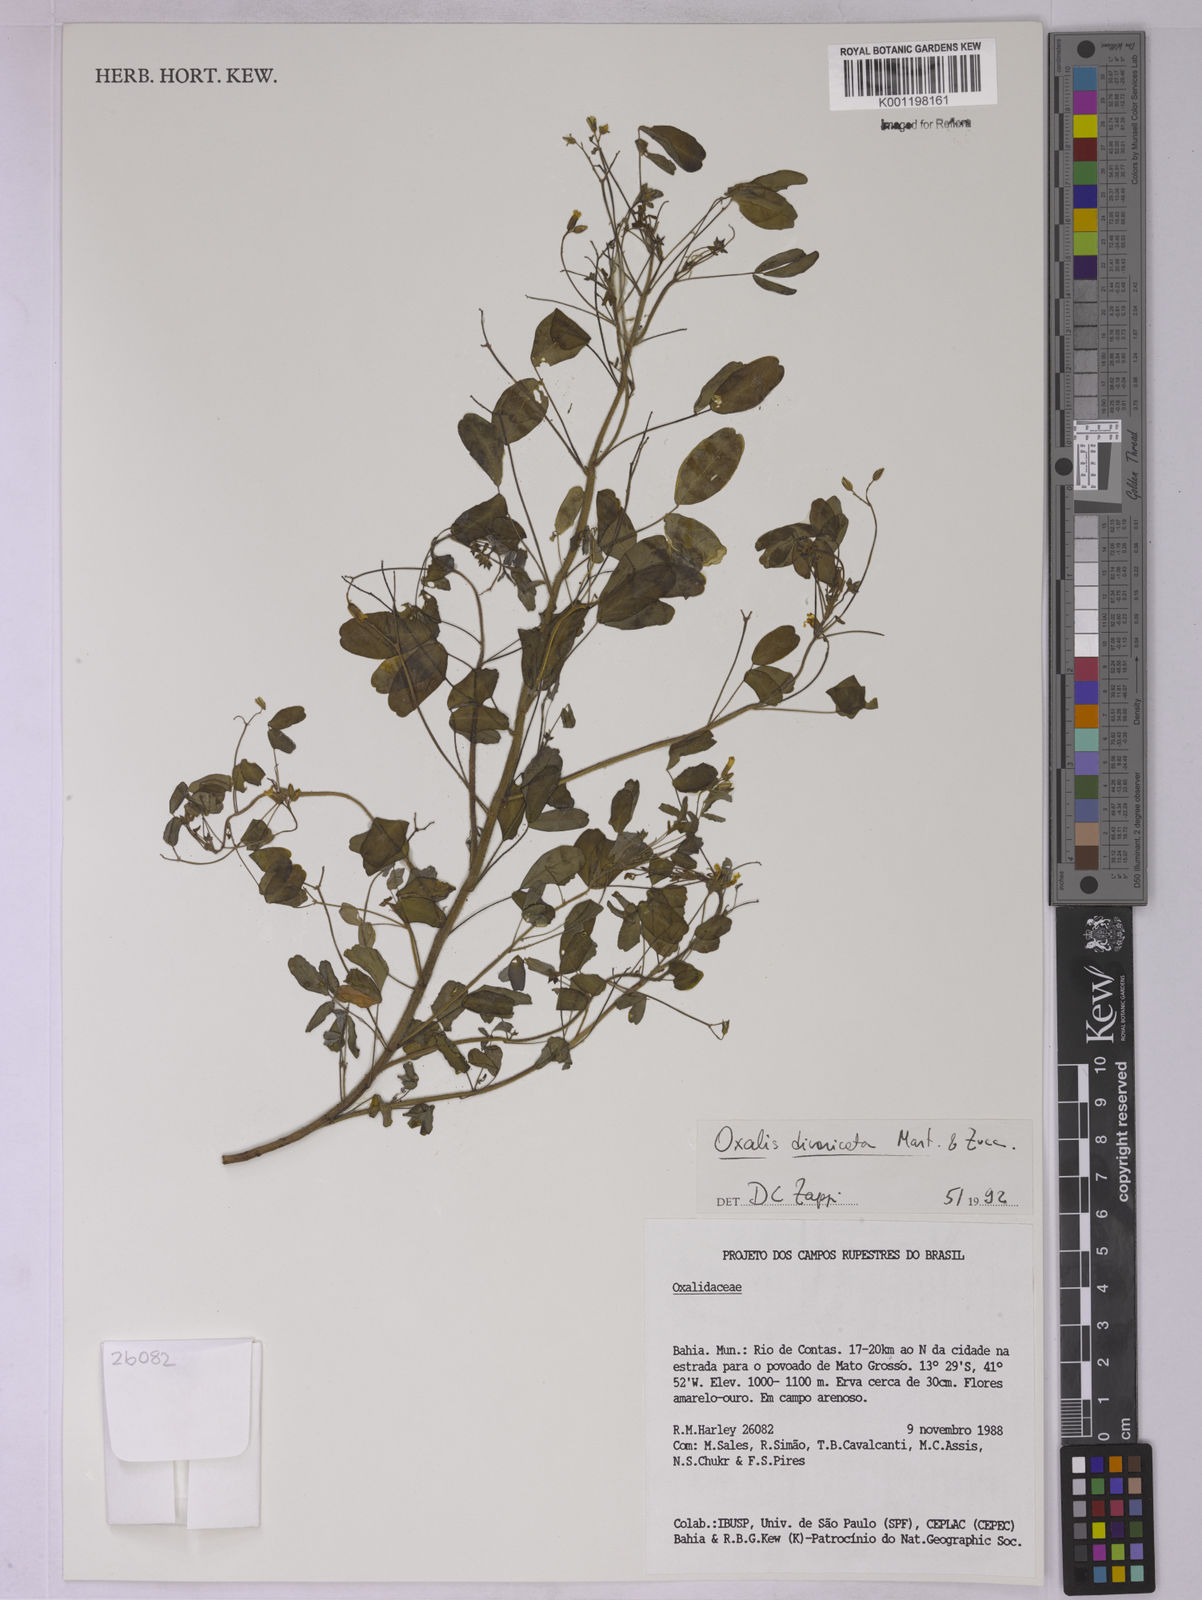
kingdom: Plantae
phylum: Tracheophyta
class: Magnoliopsida
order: Oxalidales
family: Oxalidaceae
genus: Oxalis
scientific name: Oxalis divaricata
